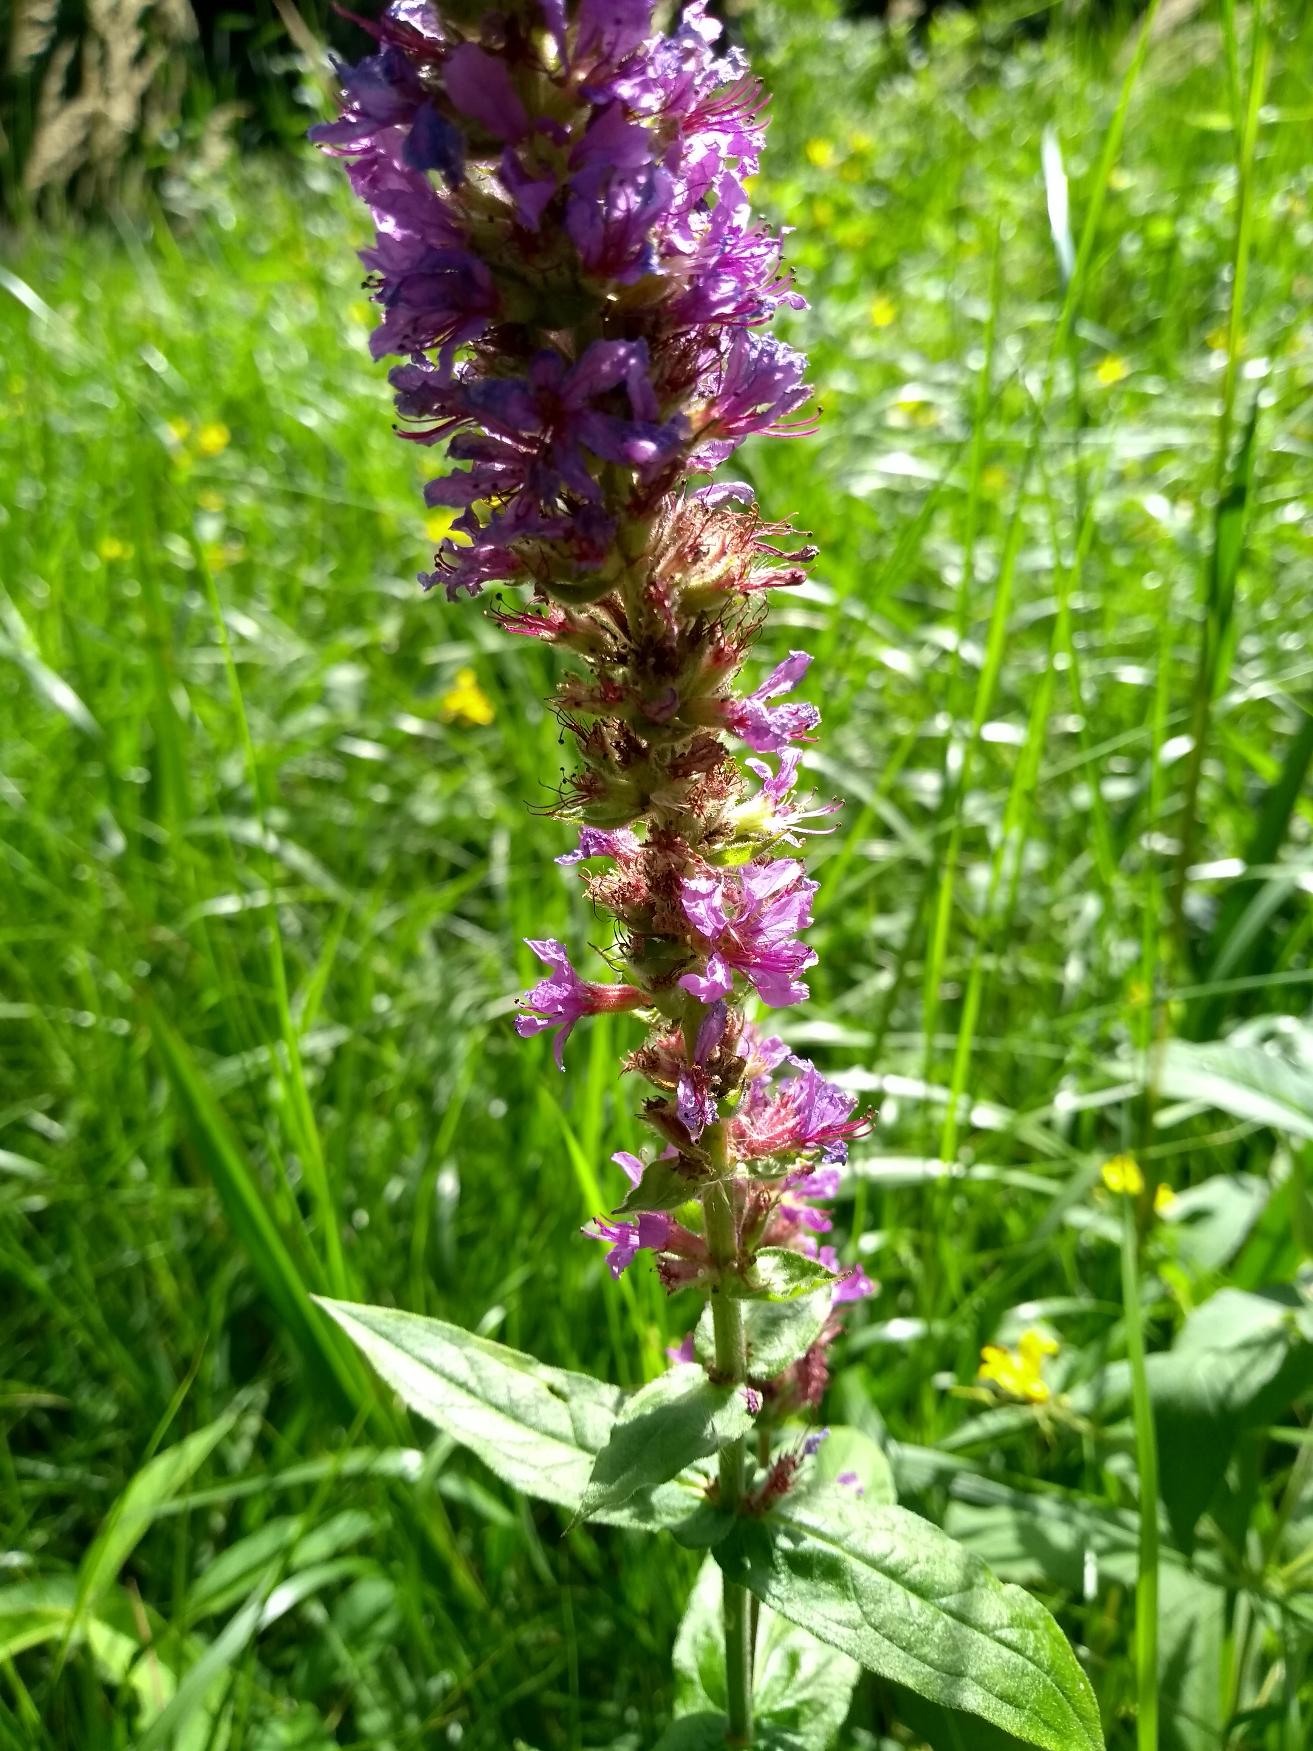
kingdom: Plantae
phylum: Tracheophyta
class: Magnoliopsida
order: Myrtales
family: Lythraceae
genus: Lythrum
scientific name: Lythrum salicaria
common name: Kattehale
